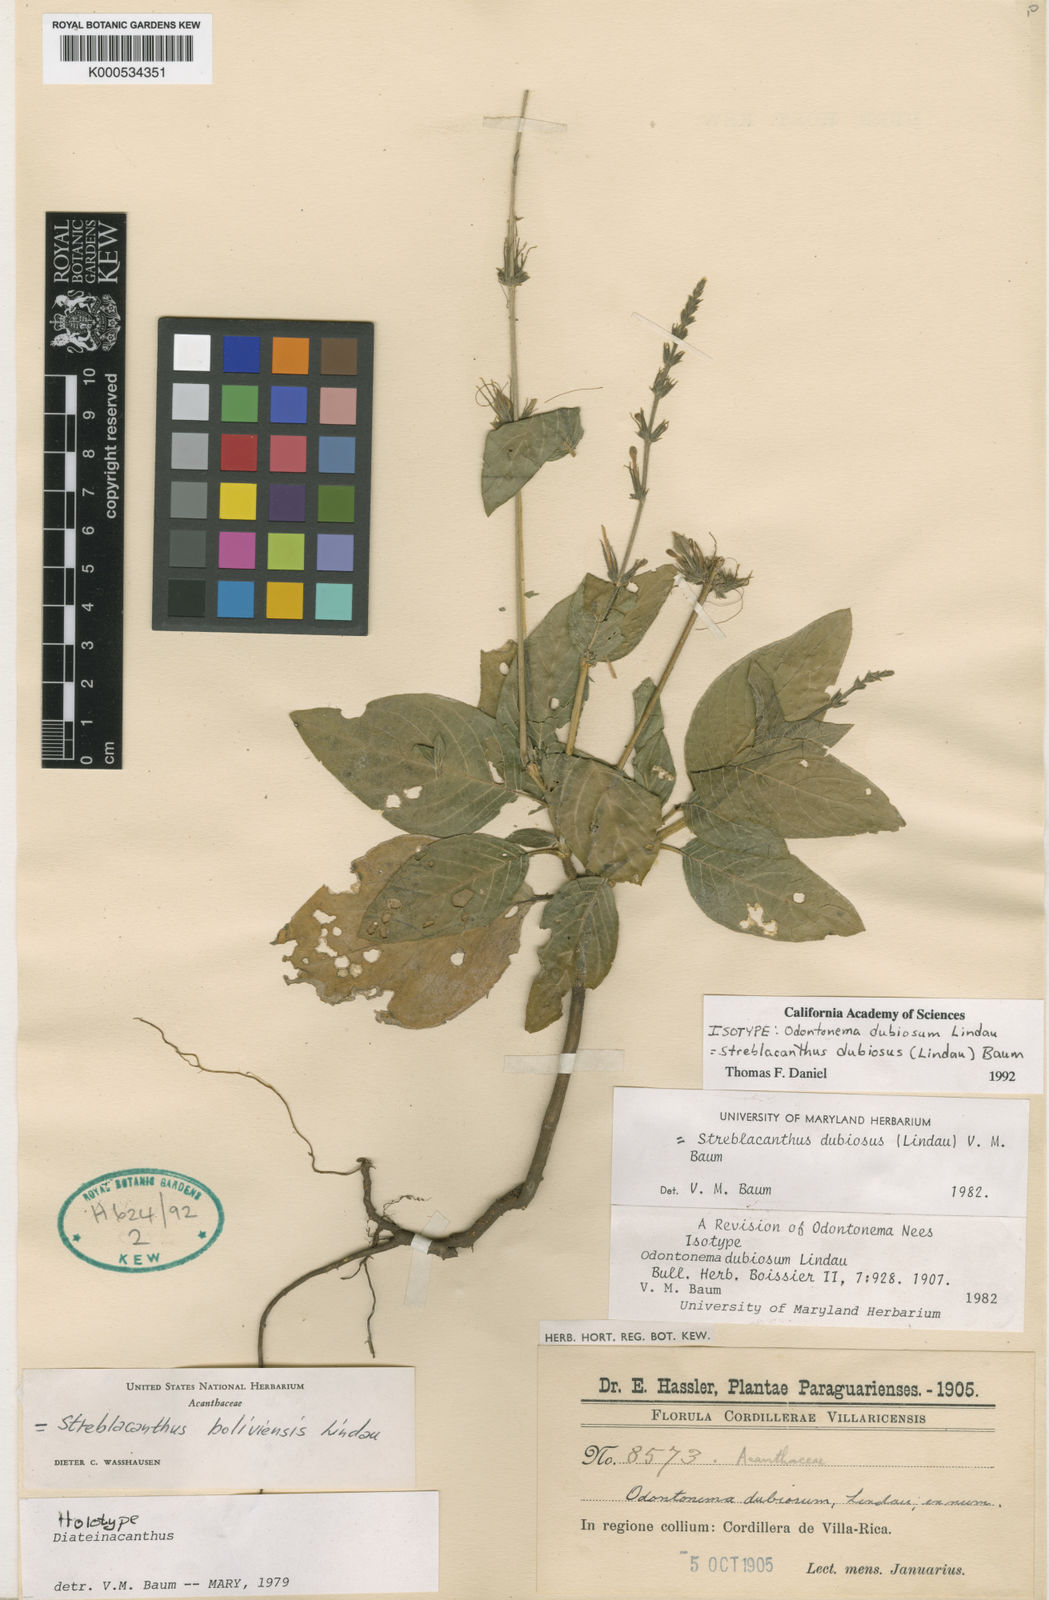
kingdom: Plantae
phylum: Tracheophyta
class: Magnoliopsida
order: Lamiales
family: Acanthaceae
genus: Pachystachys
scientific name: Pachystachys dubiosa
